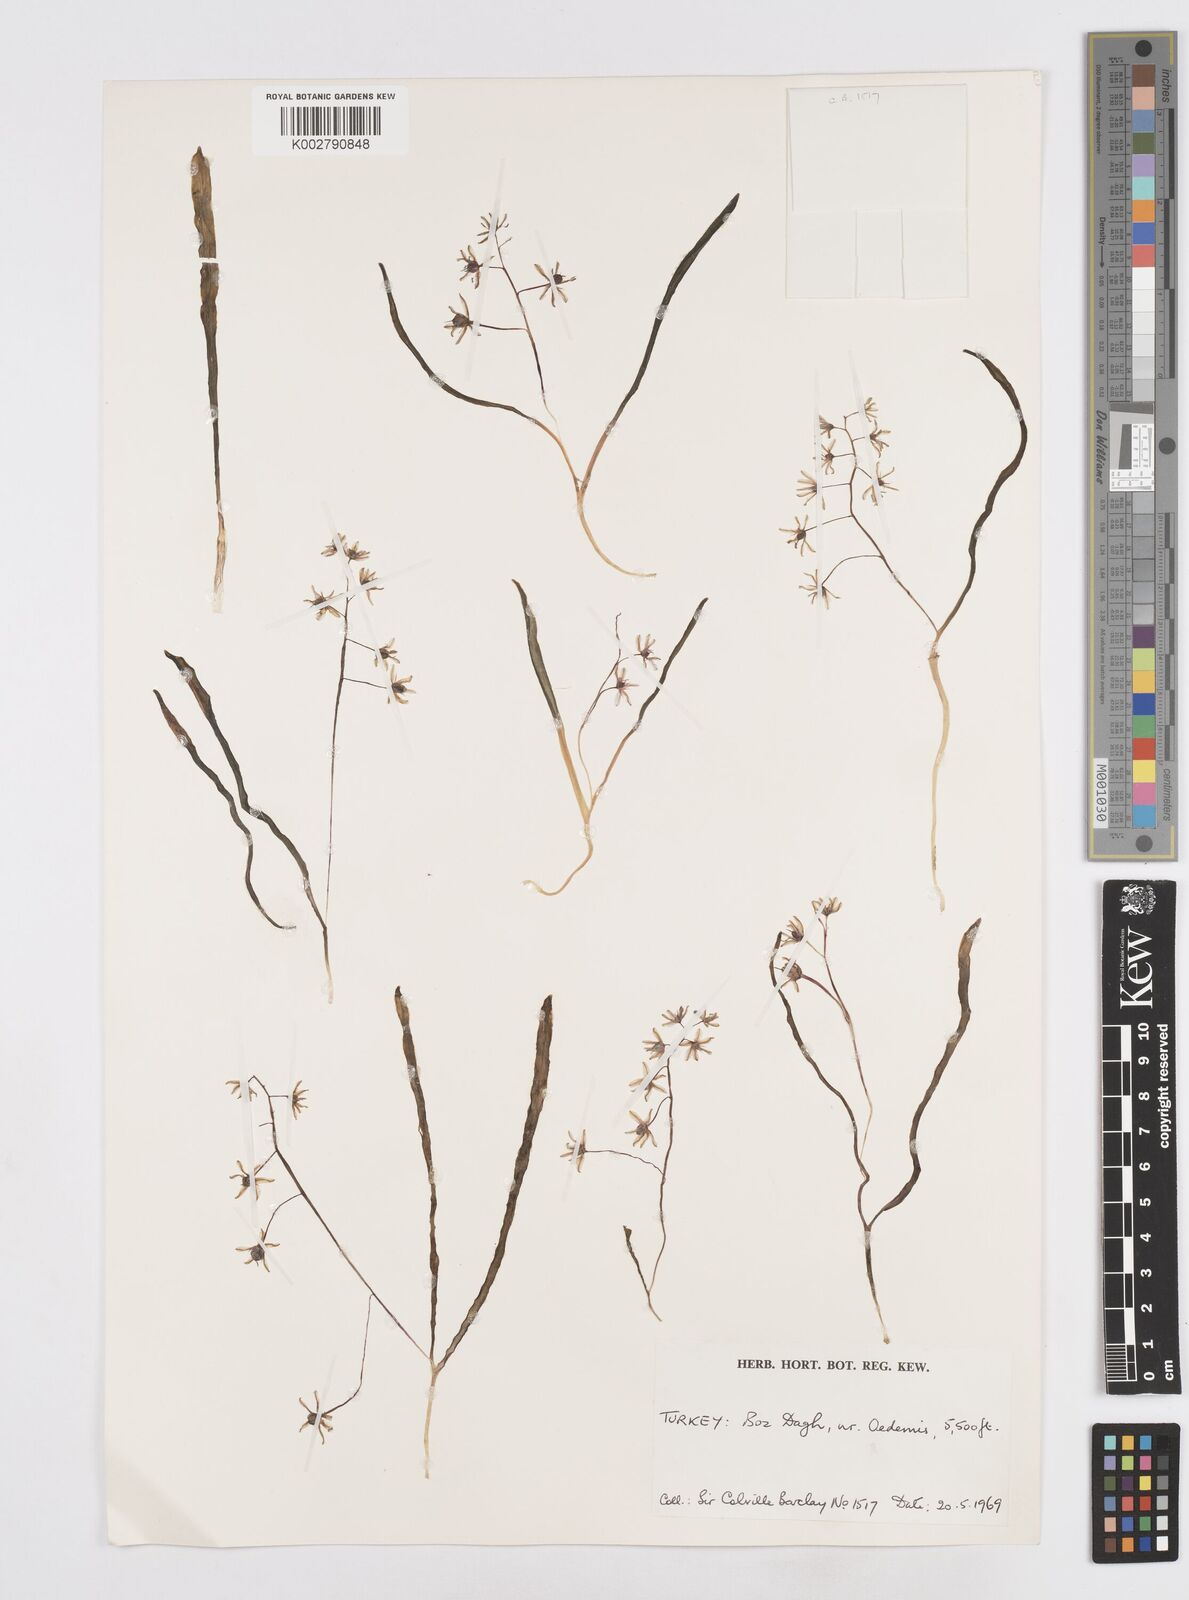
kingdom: Plantae
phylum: Tracheophyta
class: Liliopsida
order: Asparagales
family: Asparagaceae
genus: Scilla
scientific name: Scilla bifolia
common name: Alpine squill
